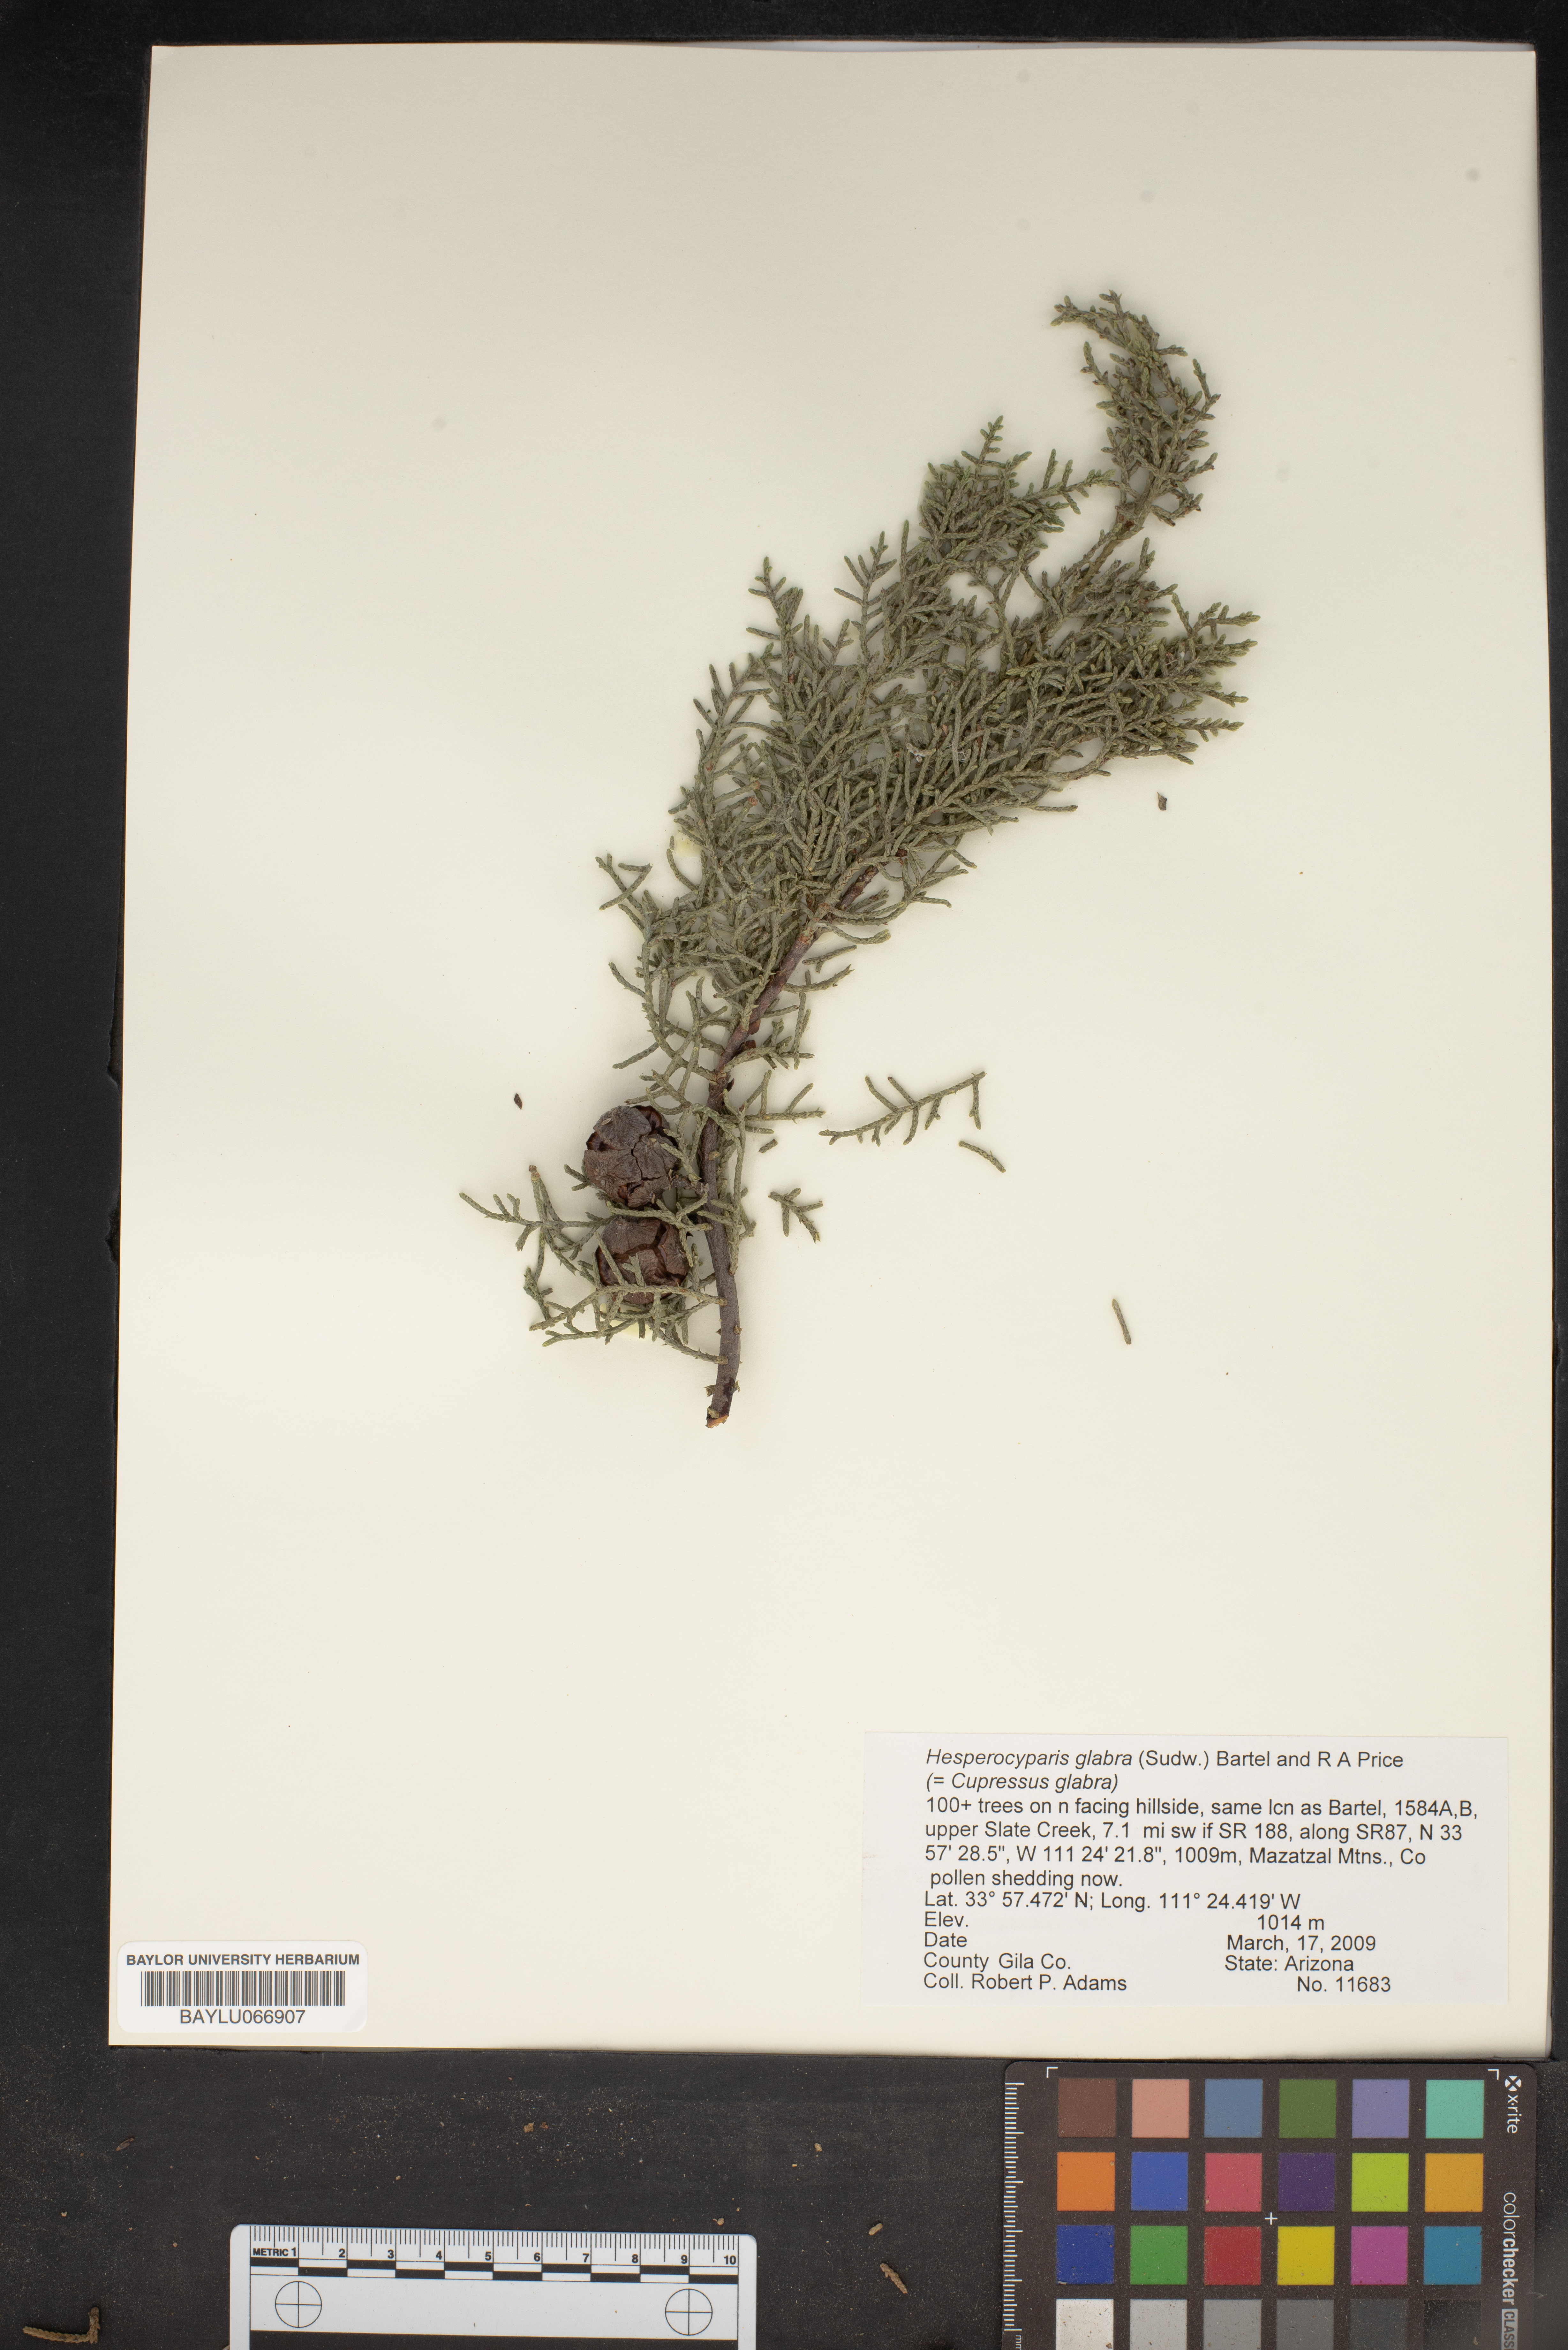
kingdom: Plantae
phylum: Tracheophyta
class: Pinopsida
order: Pinales
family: Cupressaceae
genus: Cupressus
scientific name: Cupressus arizonica
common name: Arizona cypress
